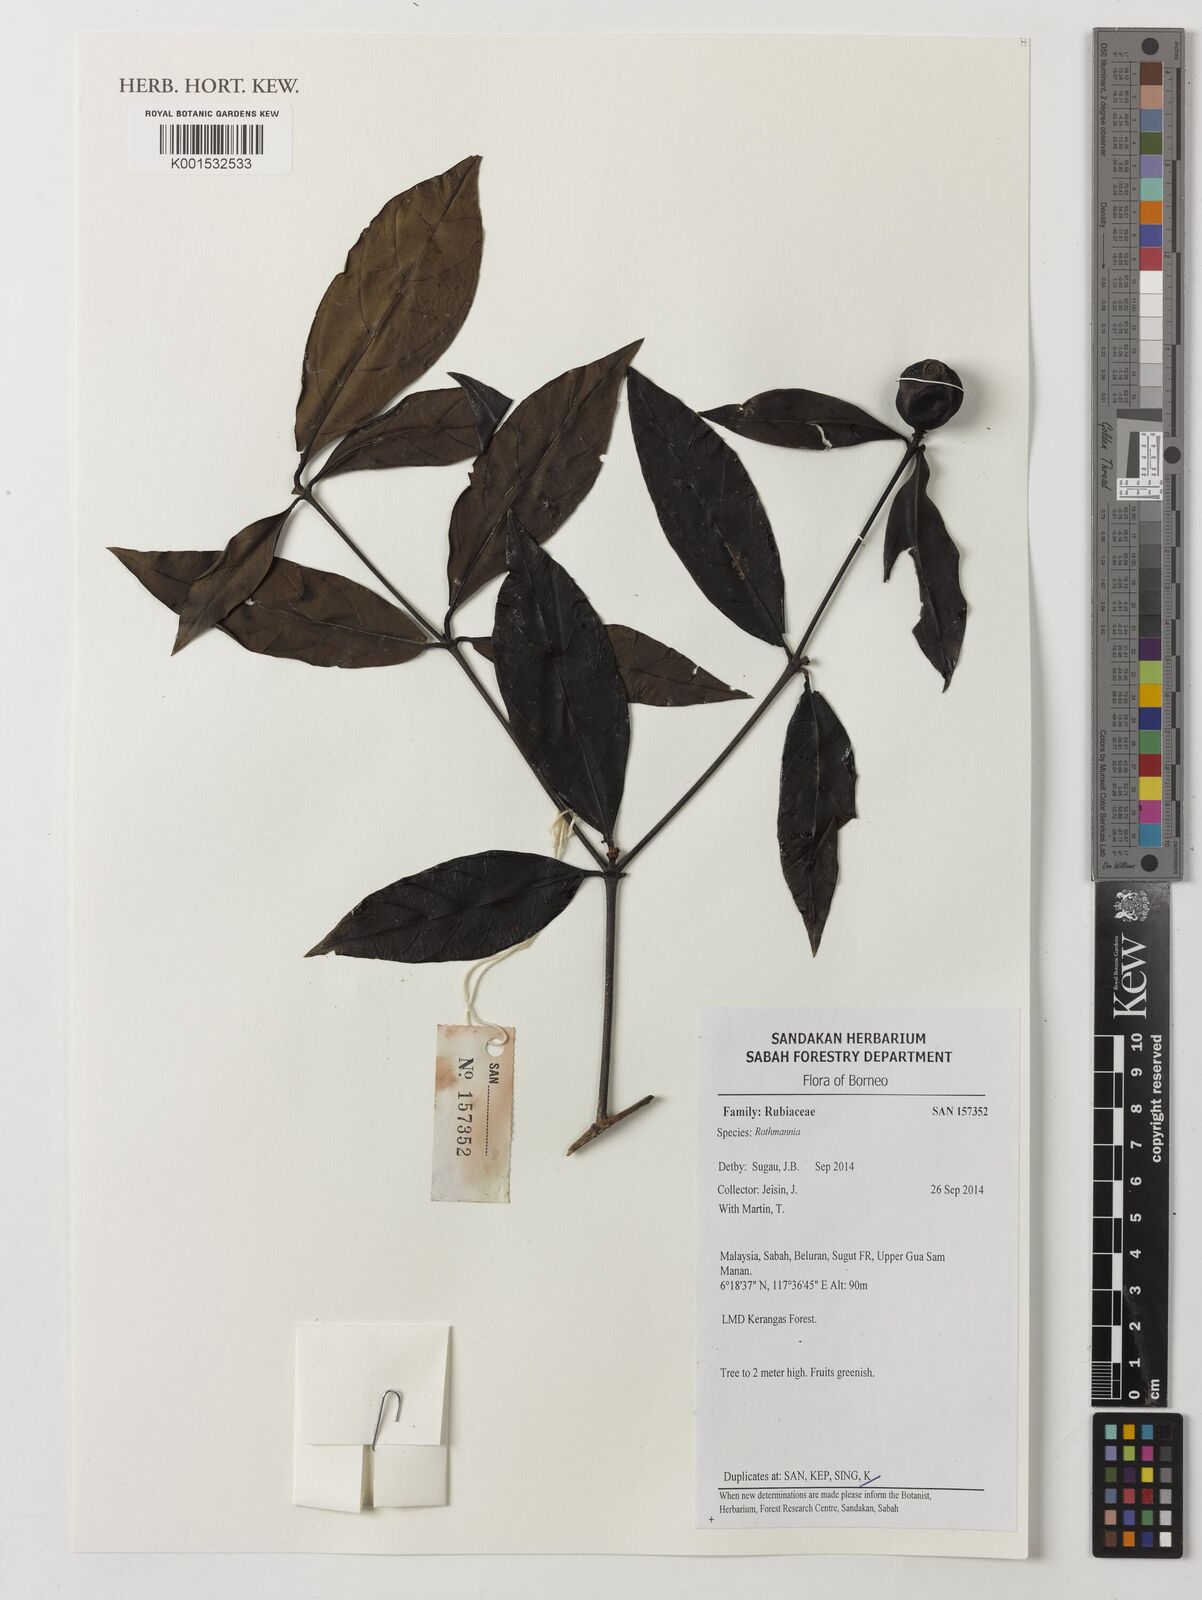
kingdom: Plantae
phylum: Tracheophyta
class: Magnoliopsida
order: Gentianales
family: Rubiaceae
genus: Rothmannia
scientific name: Rothmannia
